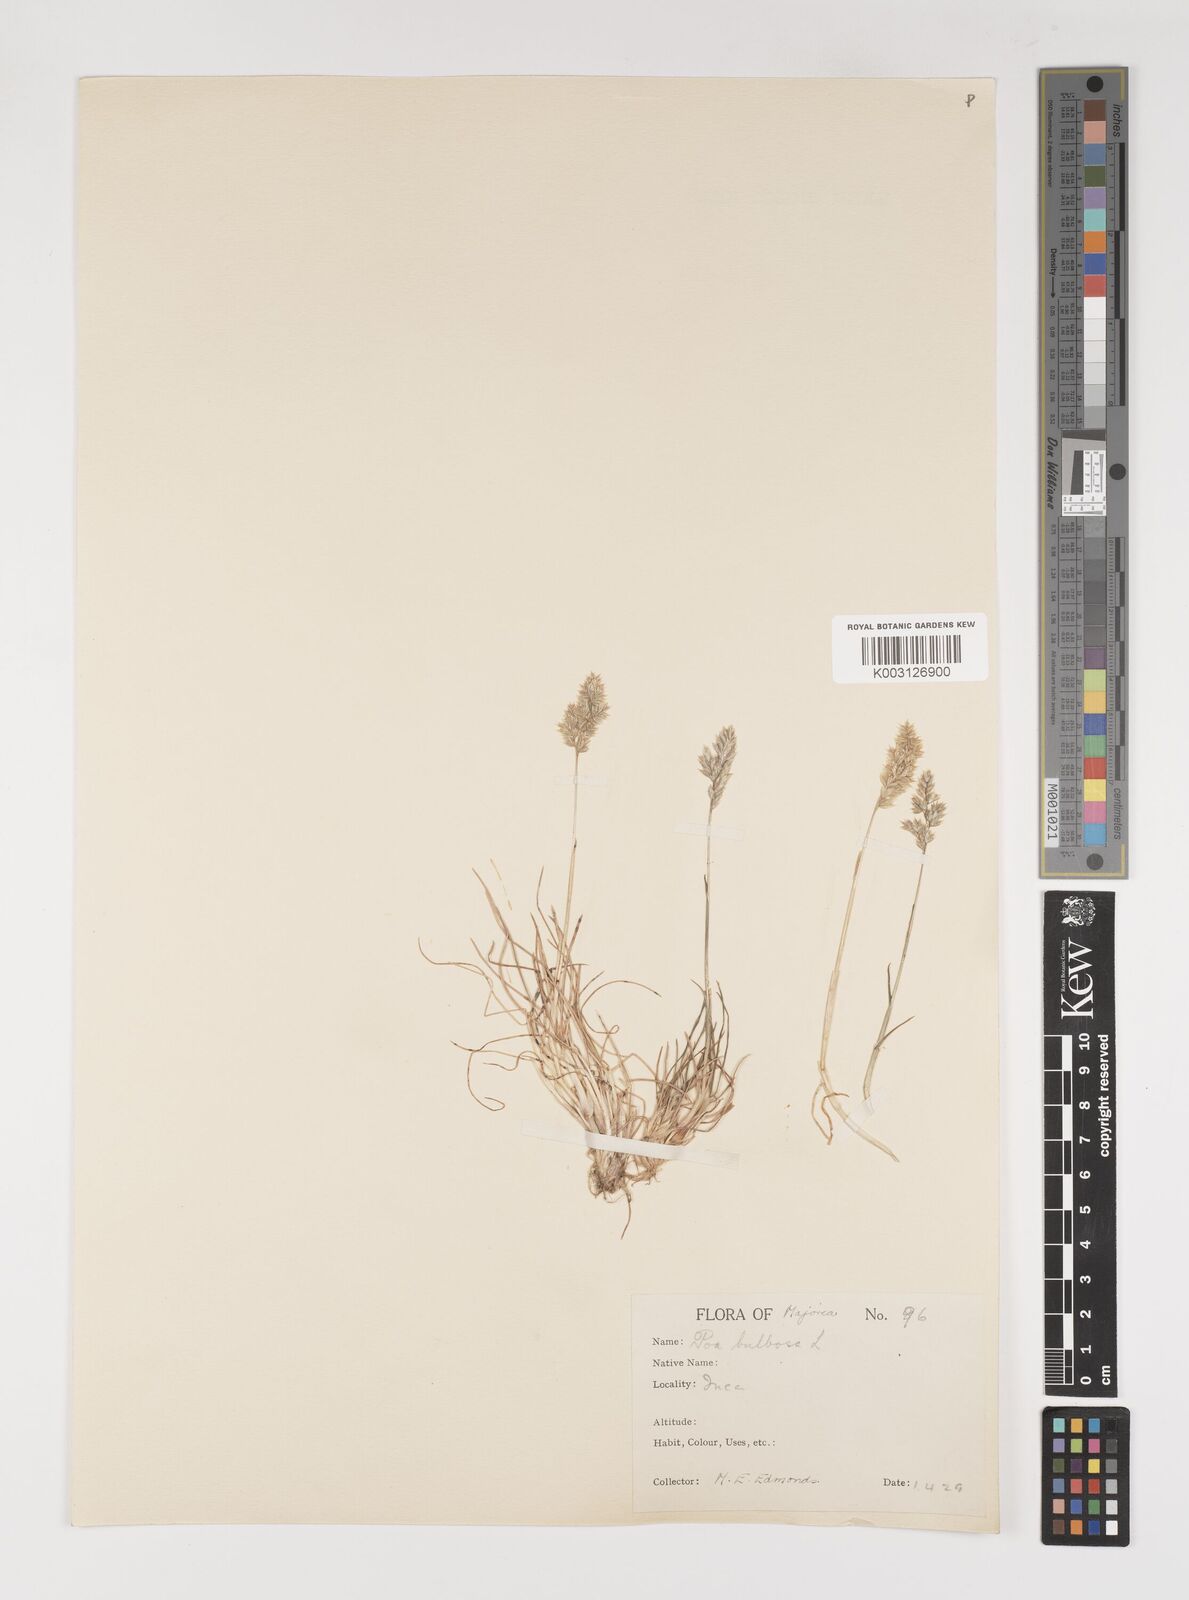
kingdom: Plantae
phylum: Tracheophyta
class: Liliopsida
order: Poales
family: Poaceae
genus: Poa
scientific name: Poa bulbosa
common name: Bulbous bluegrass
